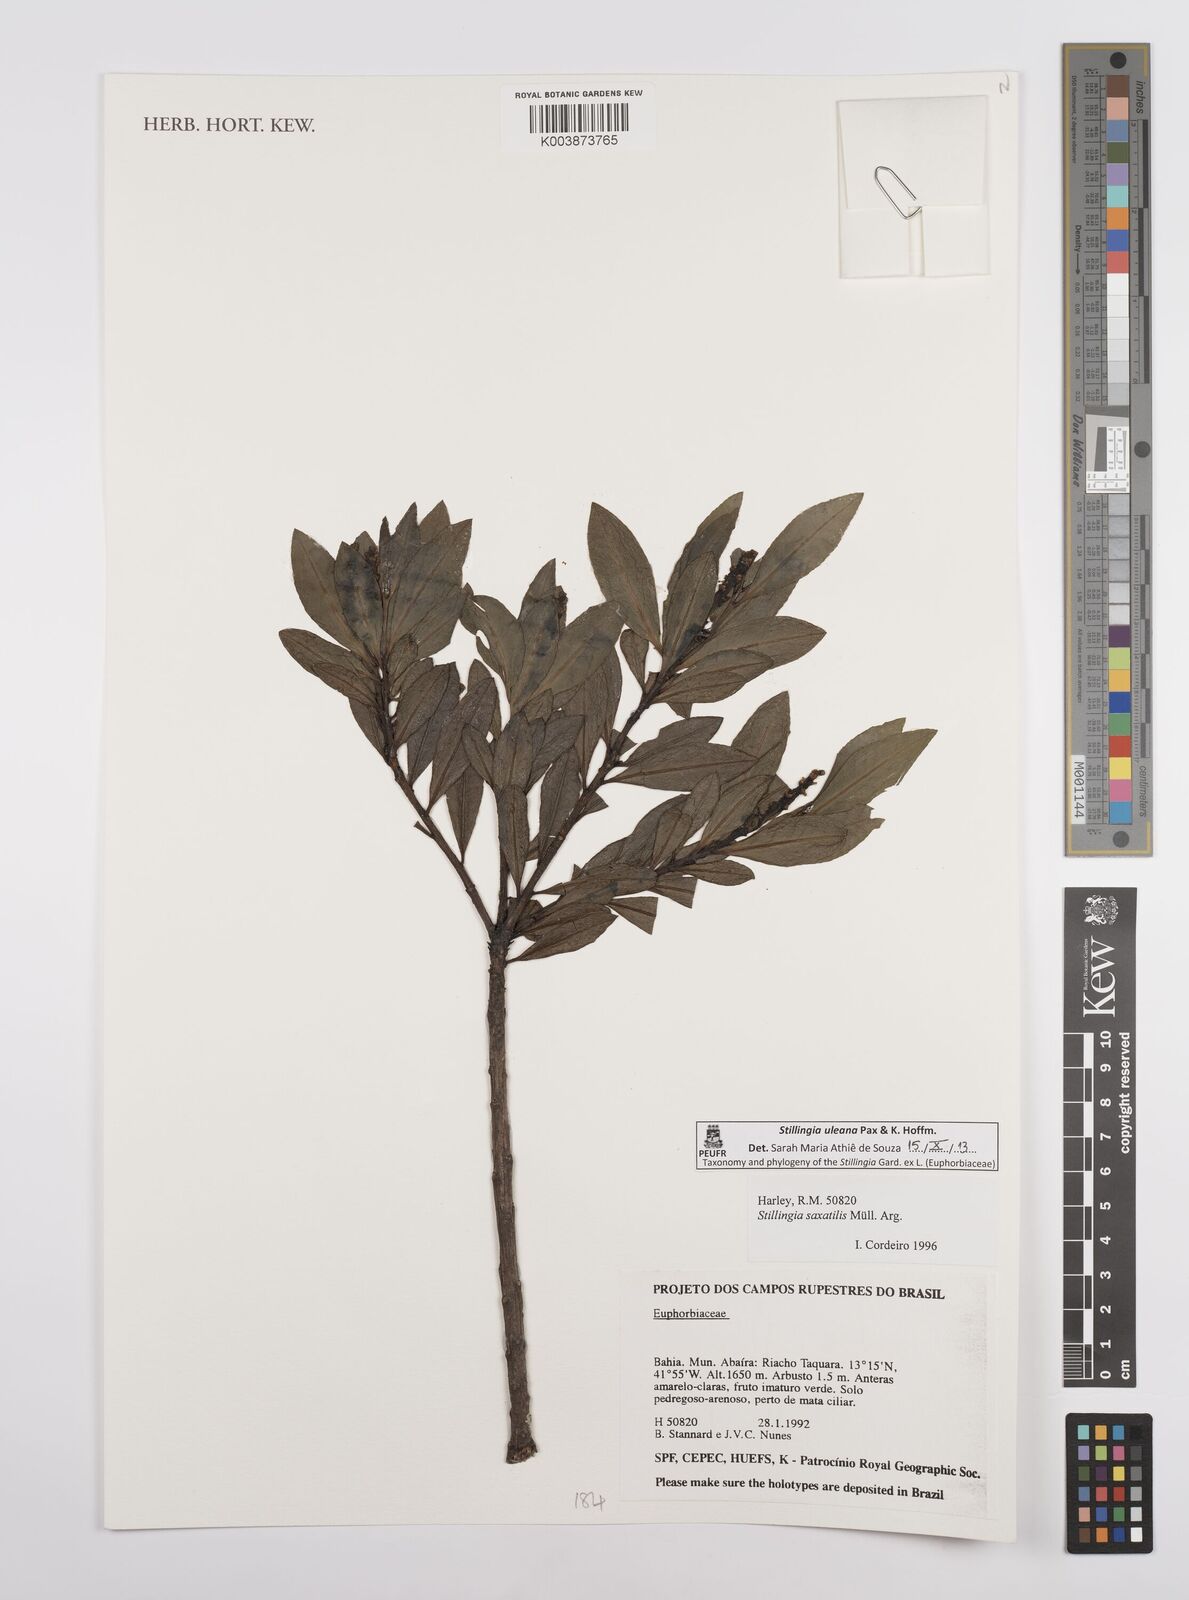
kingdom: Plantae
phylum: Tracheophyta
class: Magnoliopsida
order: Malpighiales
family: Euphorbiaceae
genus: Stillingia
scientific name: Stillingia uleana
